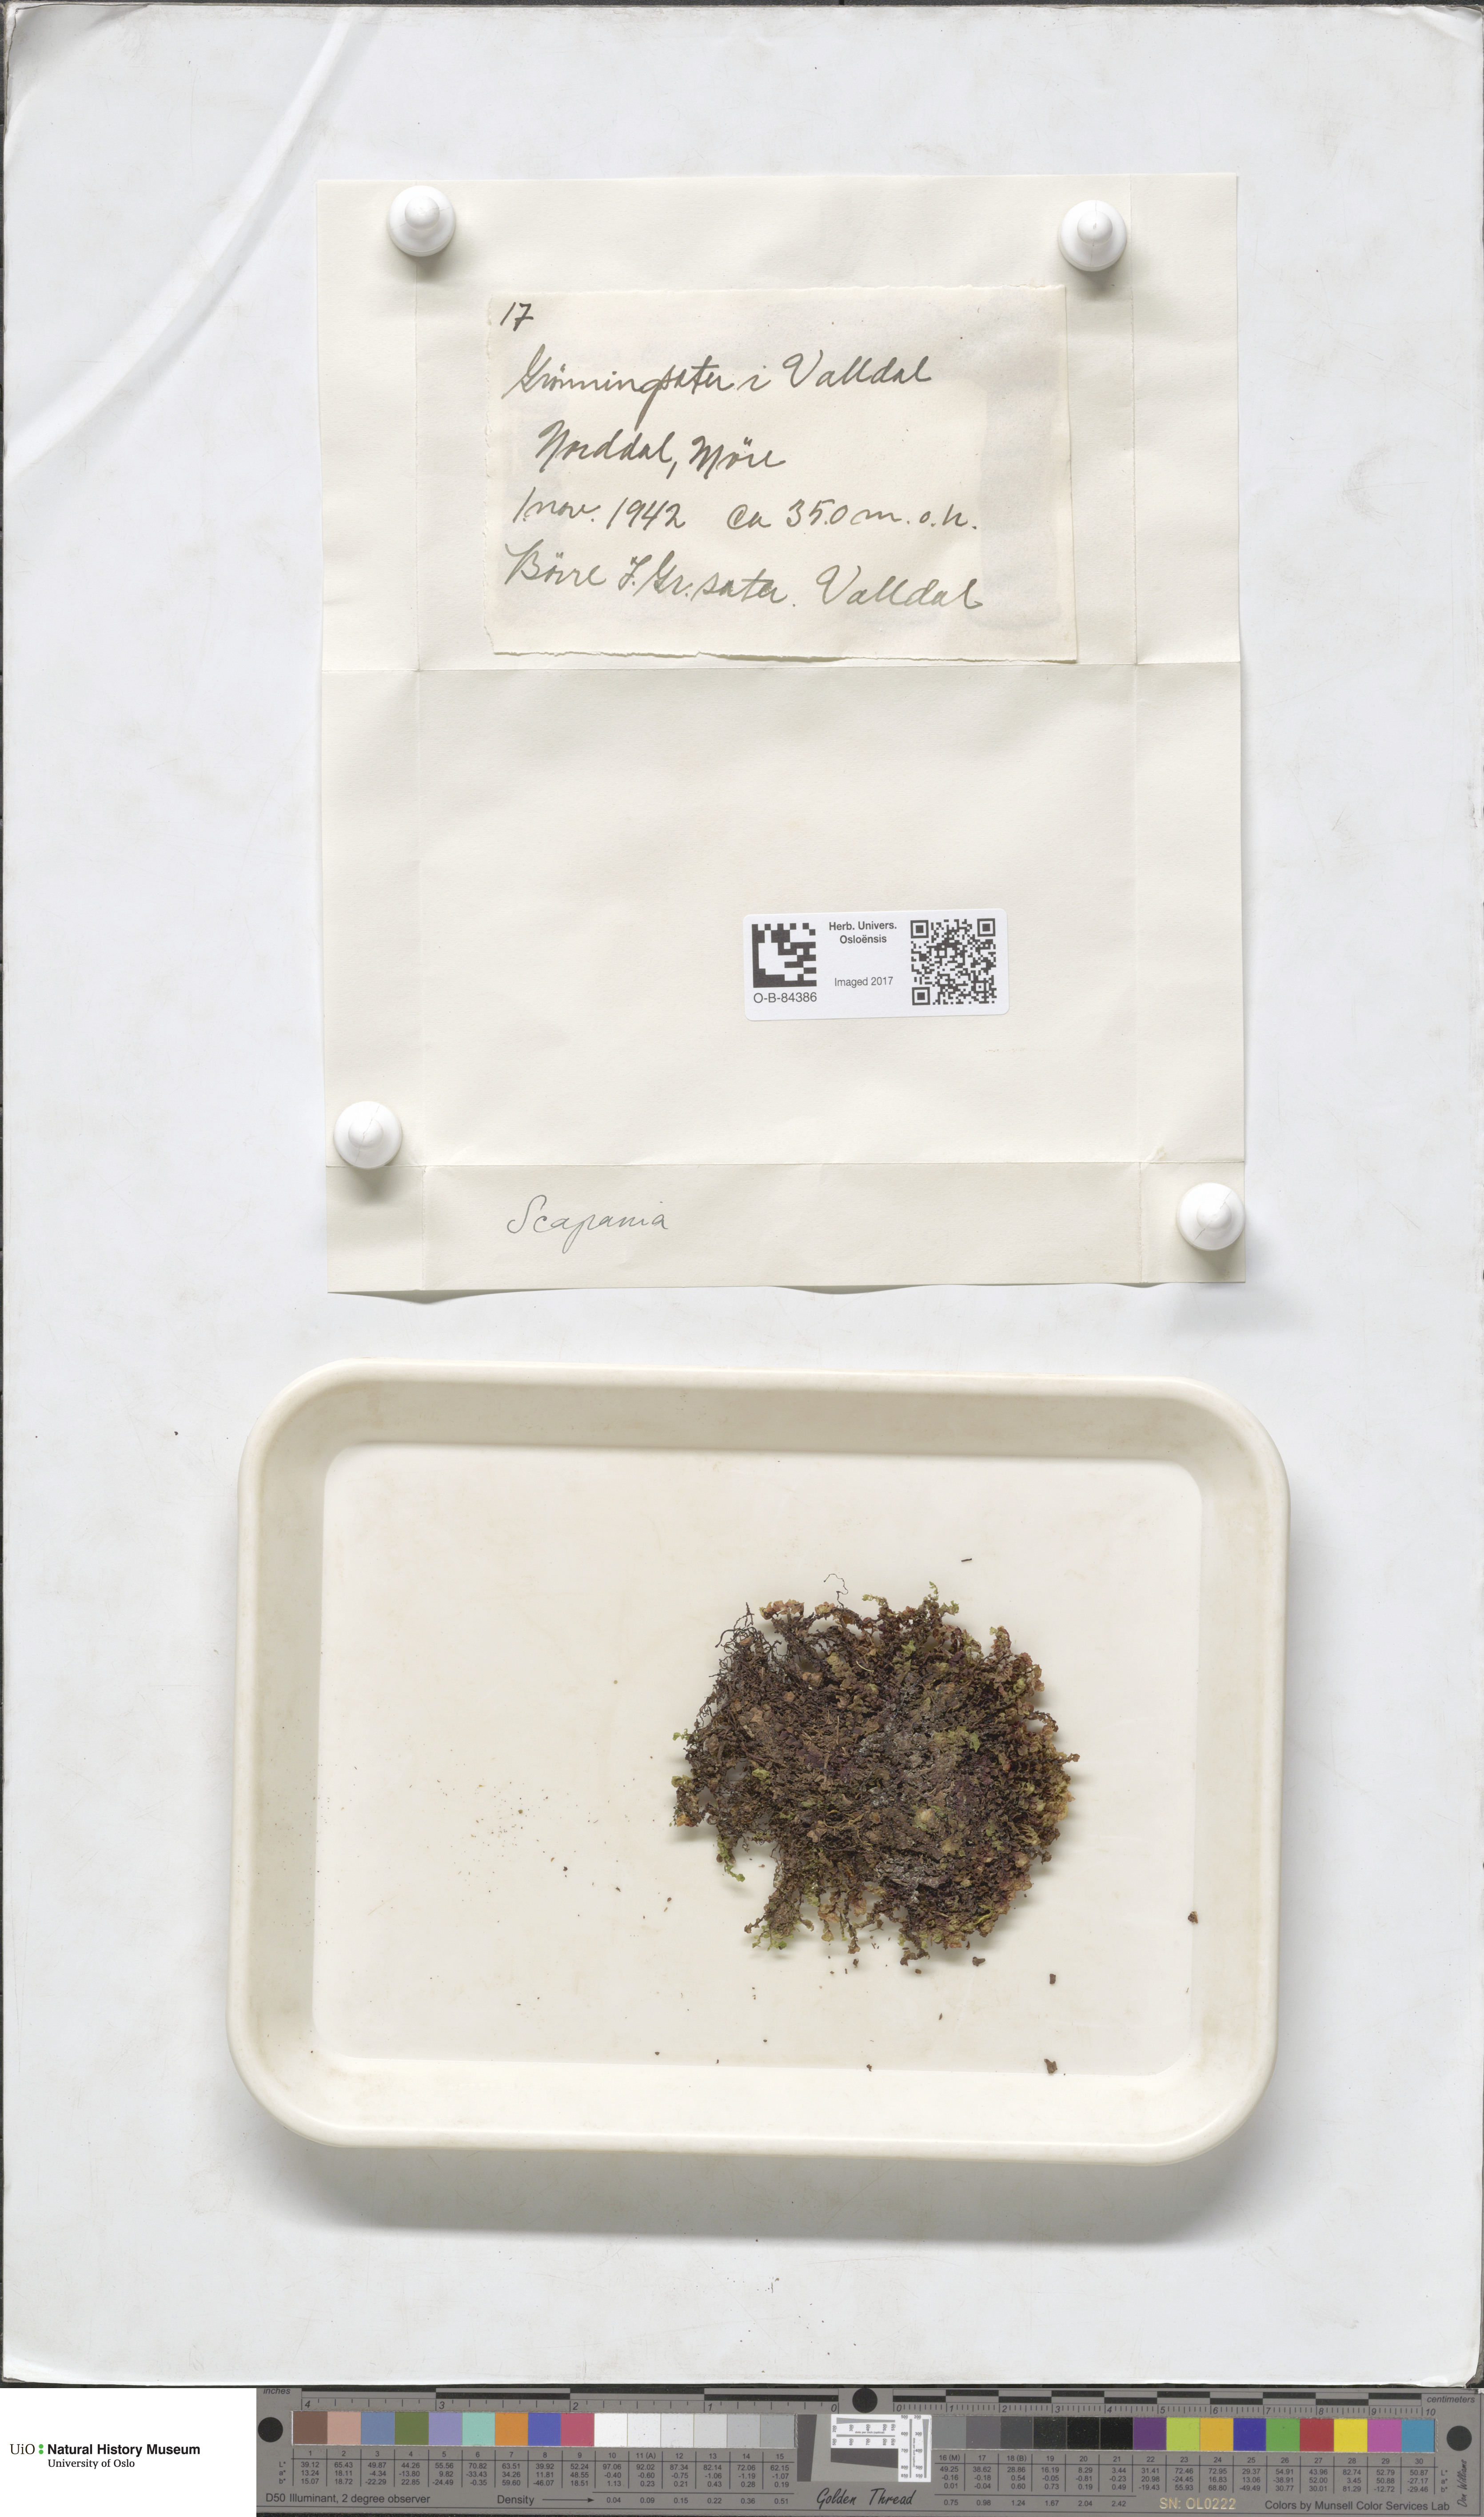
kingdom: Plantae
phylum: Marchantiophyta
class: Jungermanniopsida
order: Jungermanniales
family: Scapaniaceae
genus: Scapania
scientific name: Scapania
